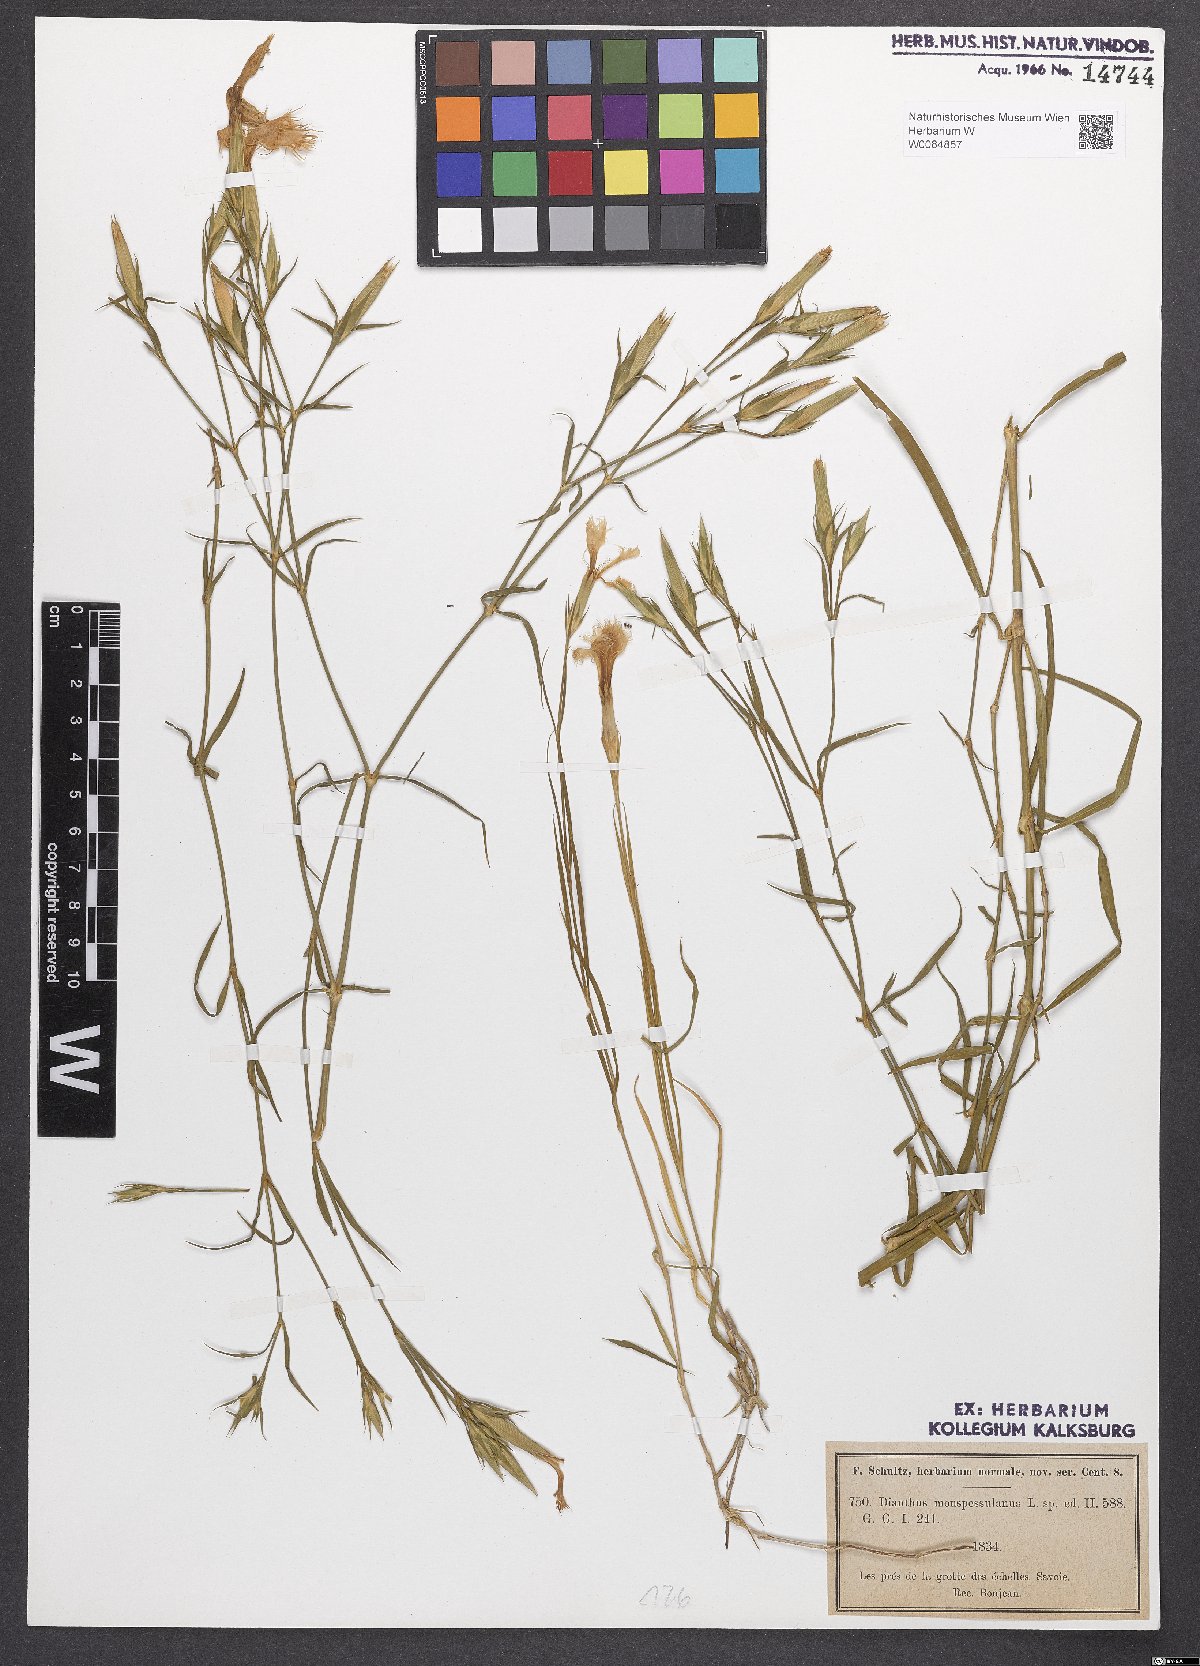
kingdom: Plantae
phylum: Tracheophyta
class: Magnoliopsida
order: Caryophyllales
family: Caryophyllaceae
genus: Dianthus
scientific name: Dianthus hyssopifolius
